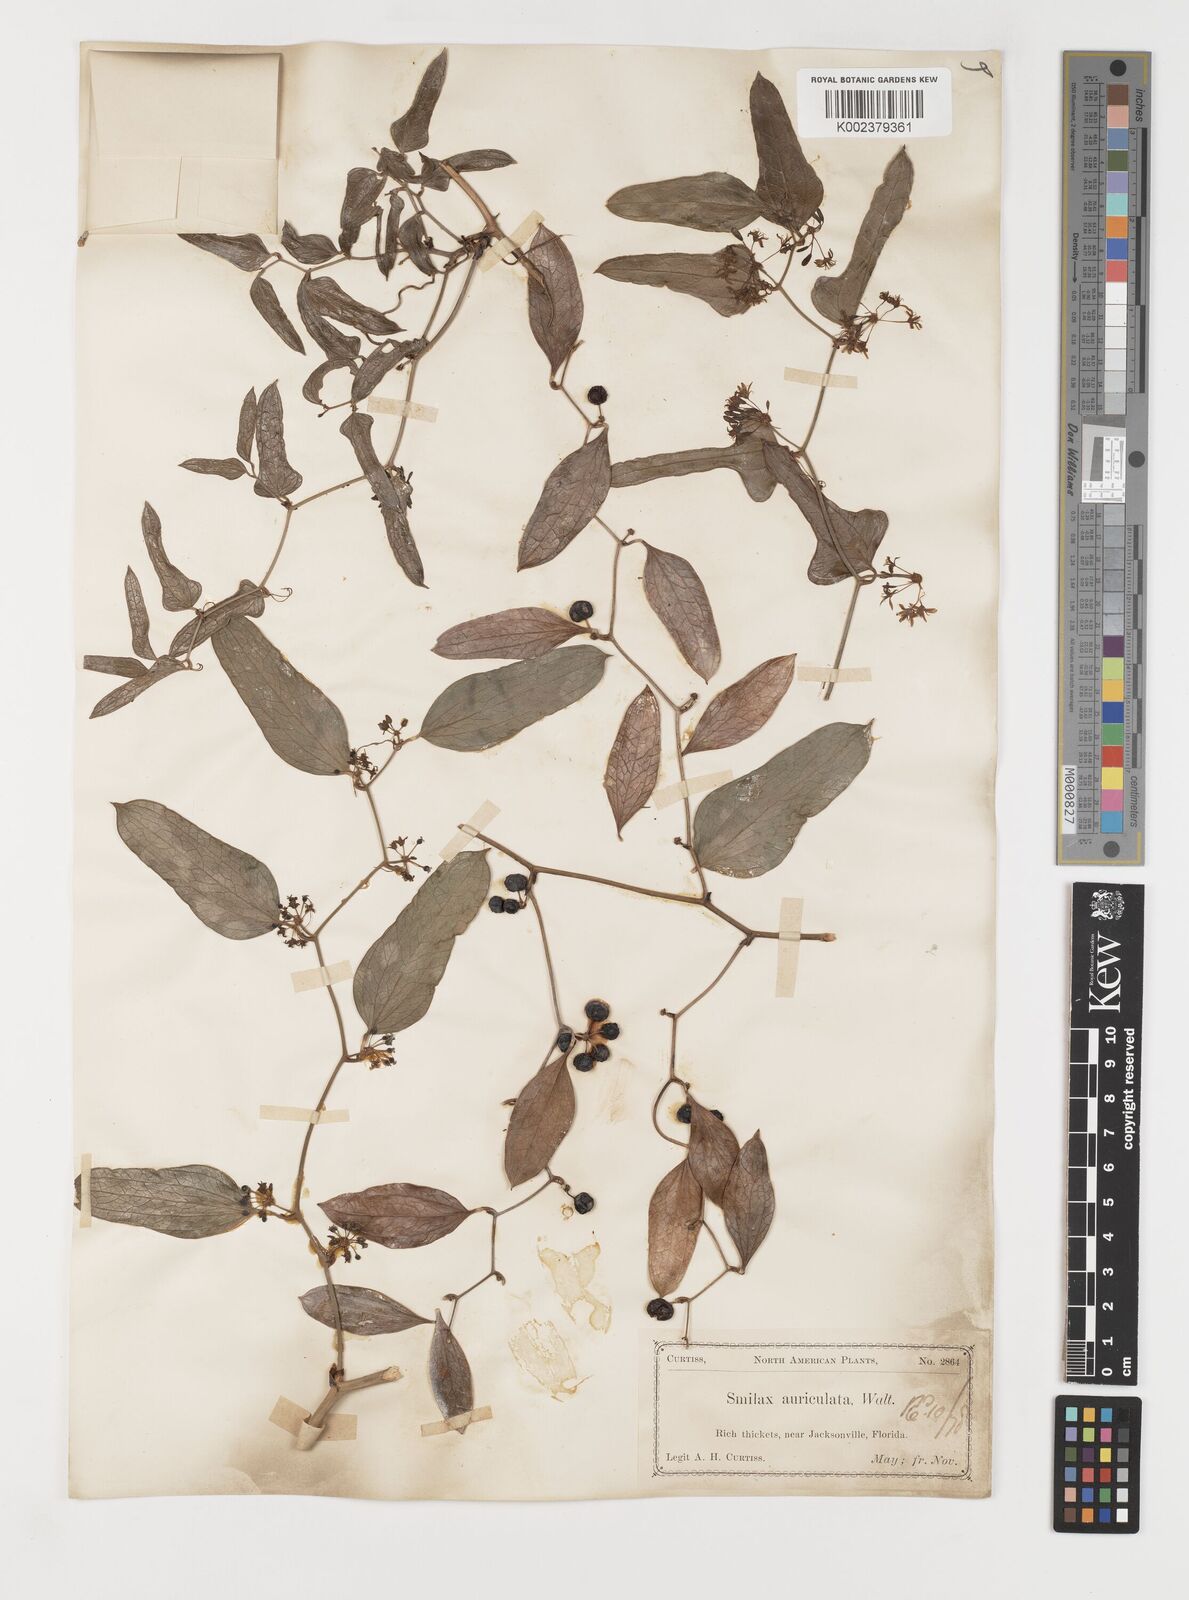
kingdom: Plantae
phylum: Tracheophyta
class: Liliopsida
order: Liliales
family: Smilacaceae
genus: Smilax
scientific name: Smilax auriculata
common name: Wild bamboo
